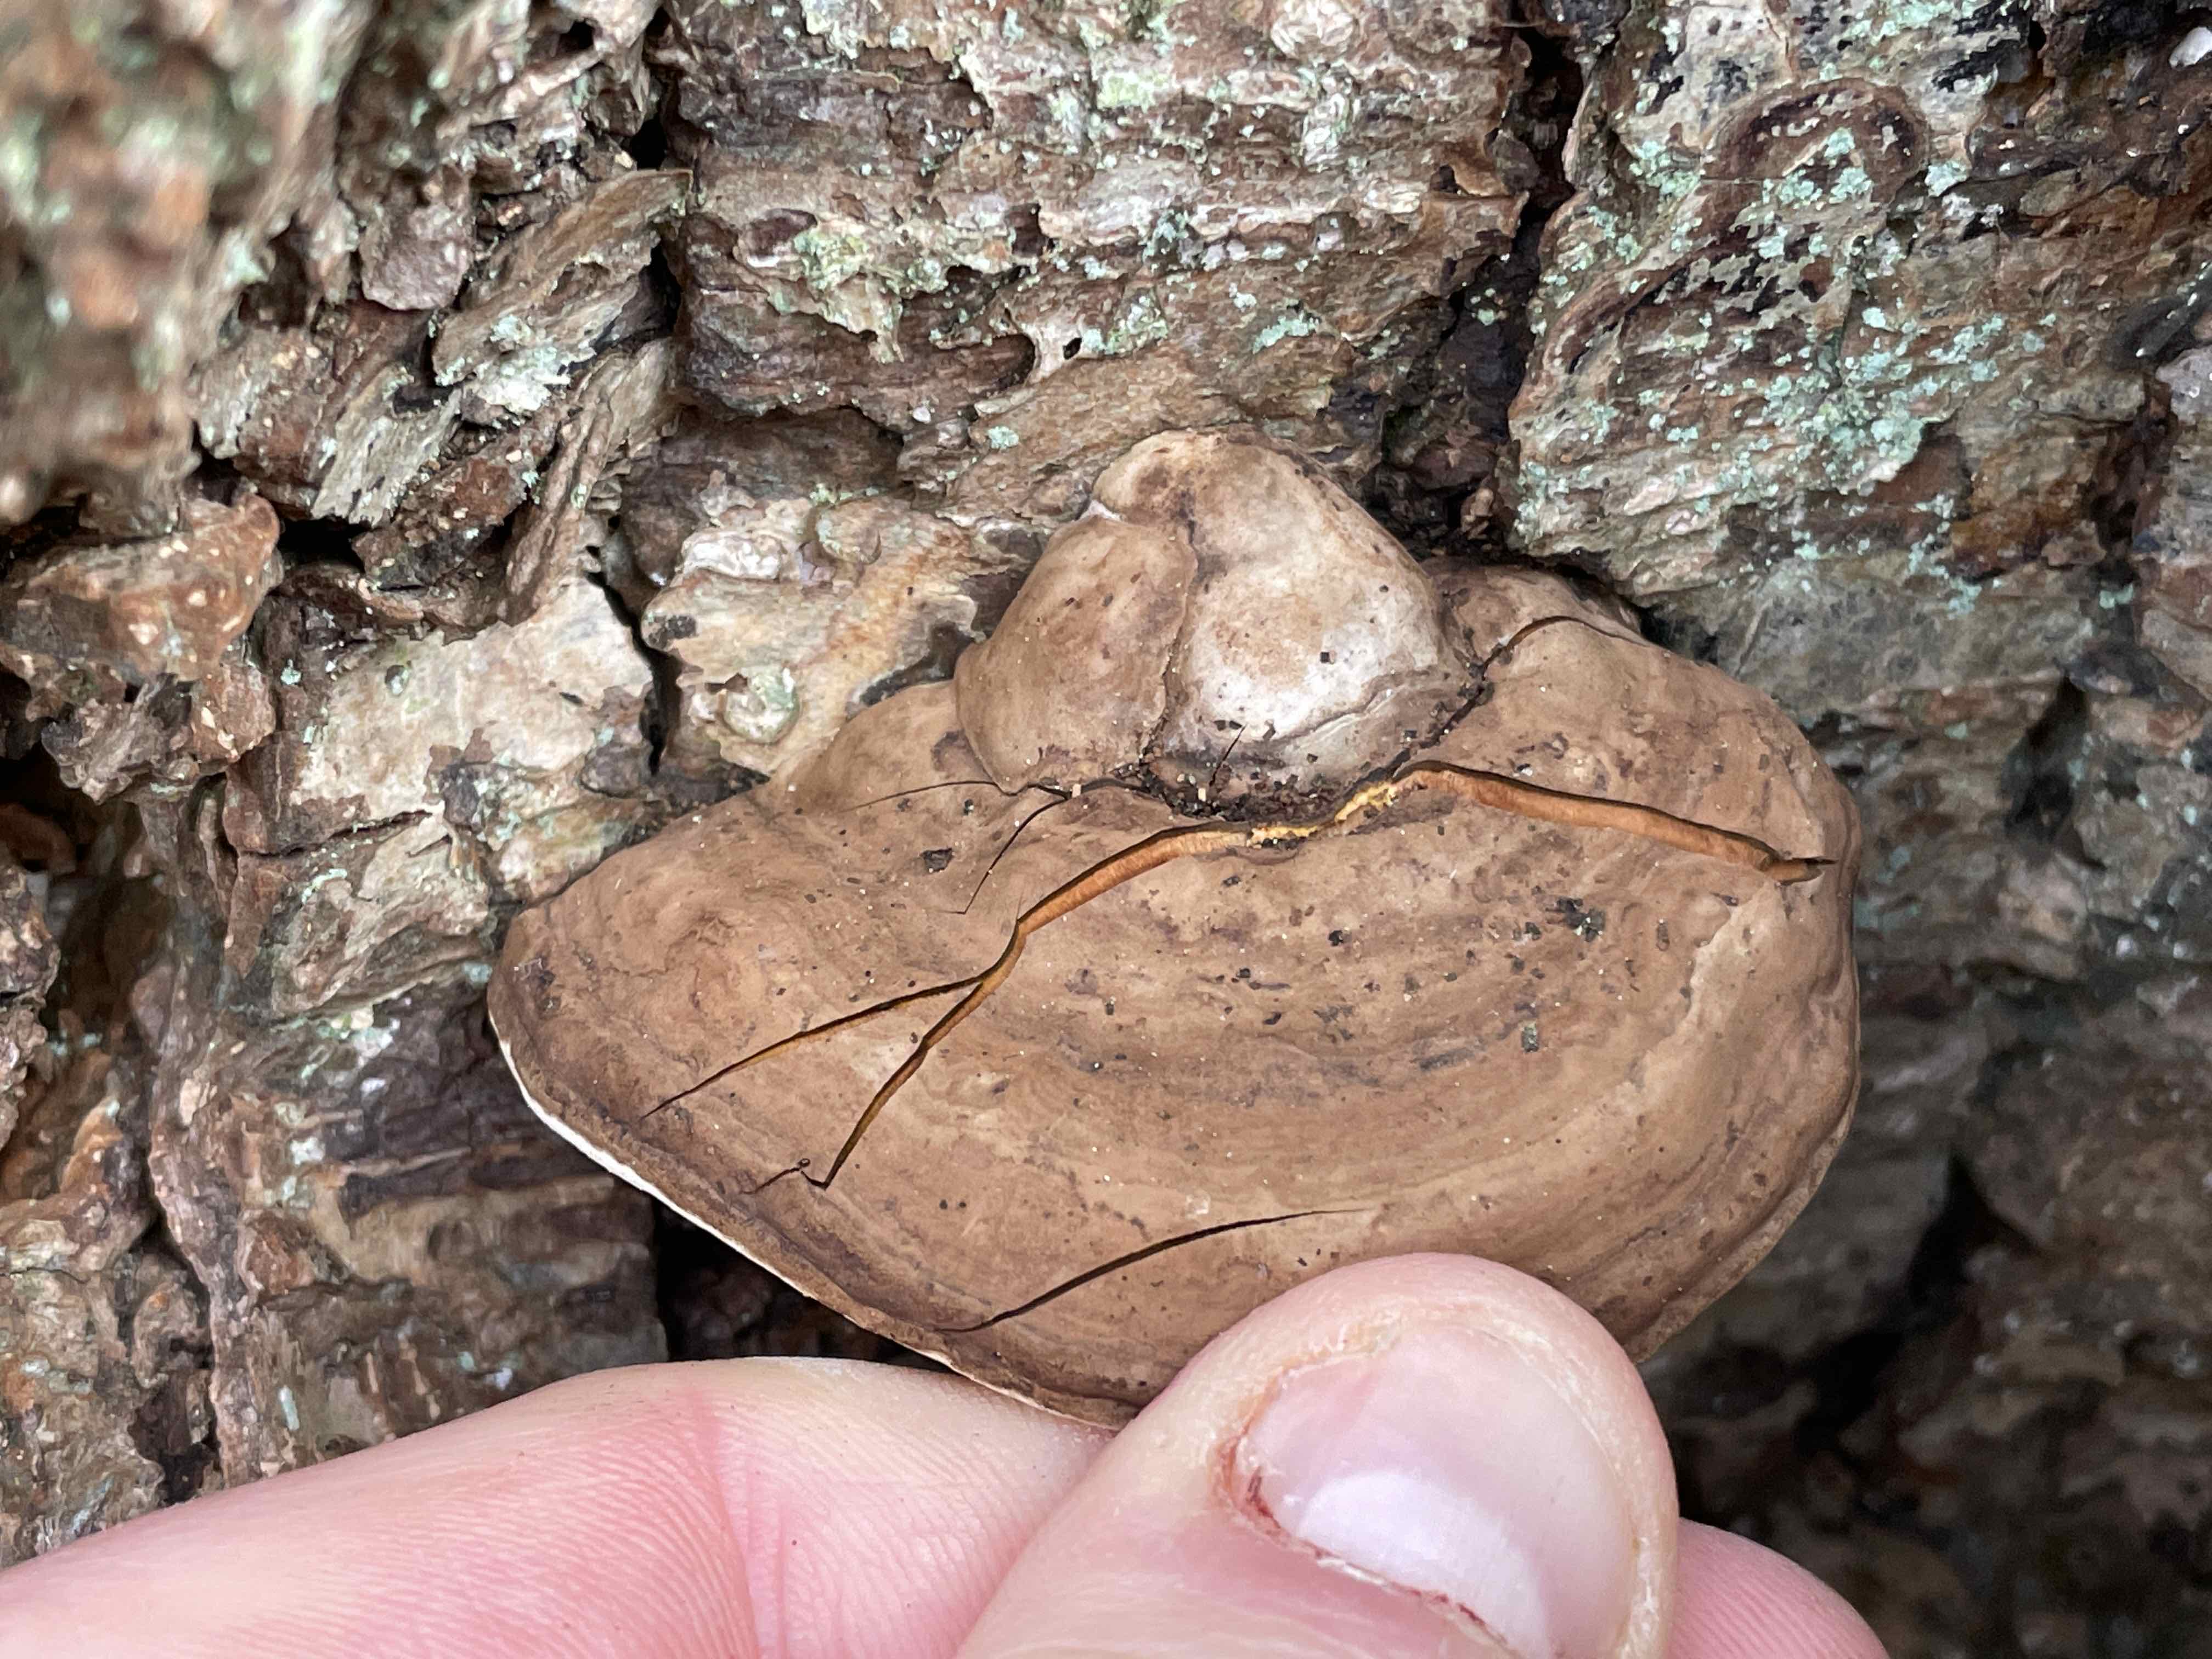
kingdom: Fungi
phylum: Basidiomycota
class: Agaricomycetes
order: Polyporales
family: Polyporaceae
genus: Ganoderma
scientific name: Ganoderma applanatum
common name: flad lakporesvamp
